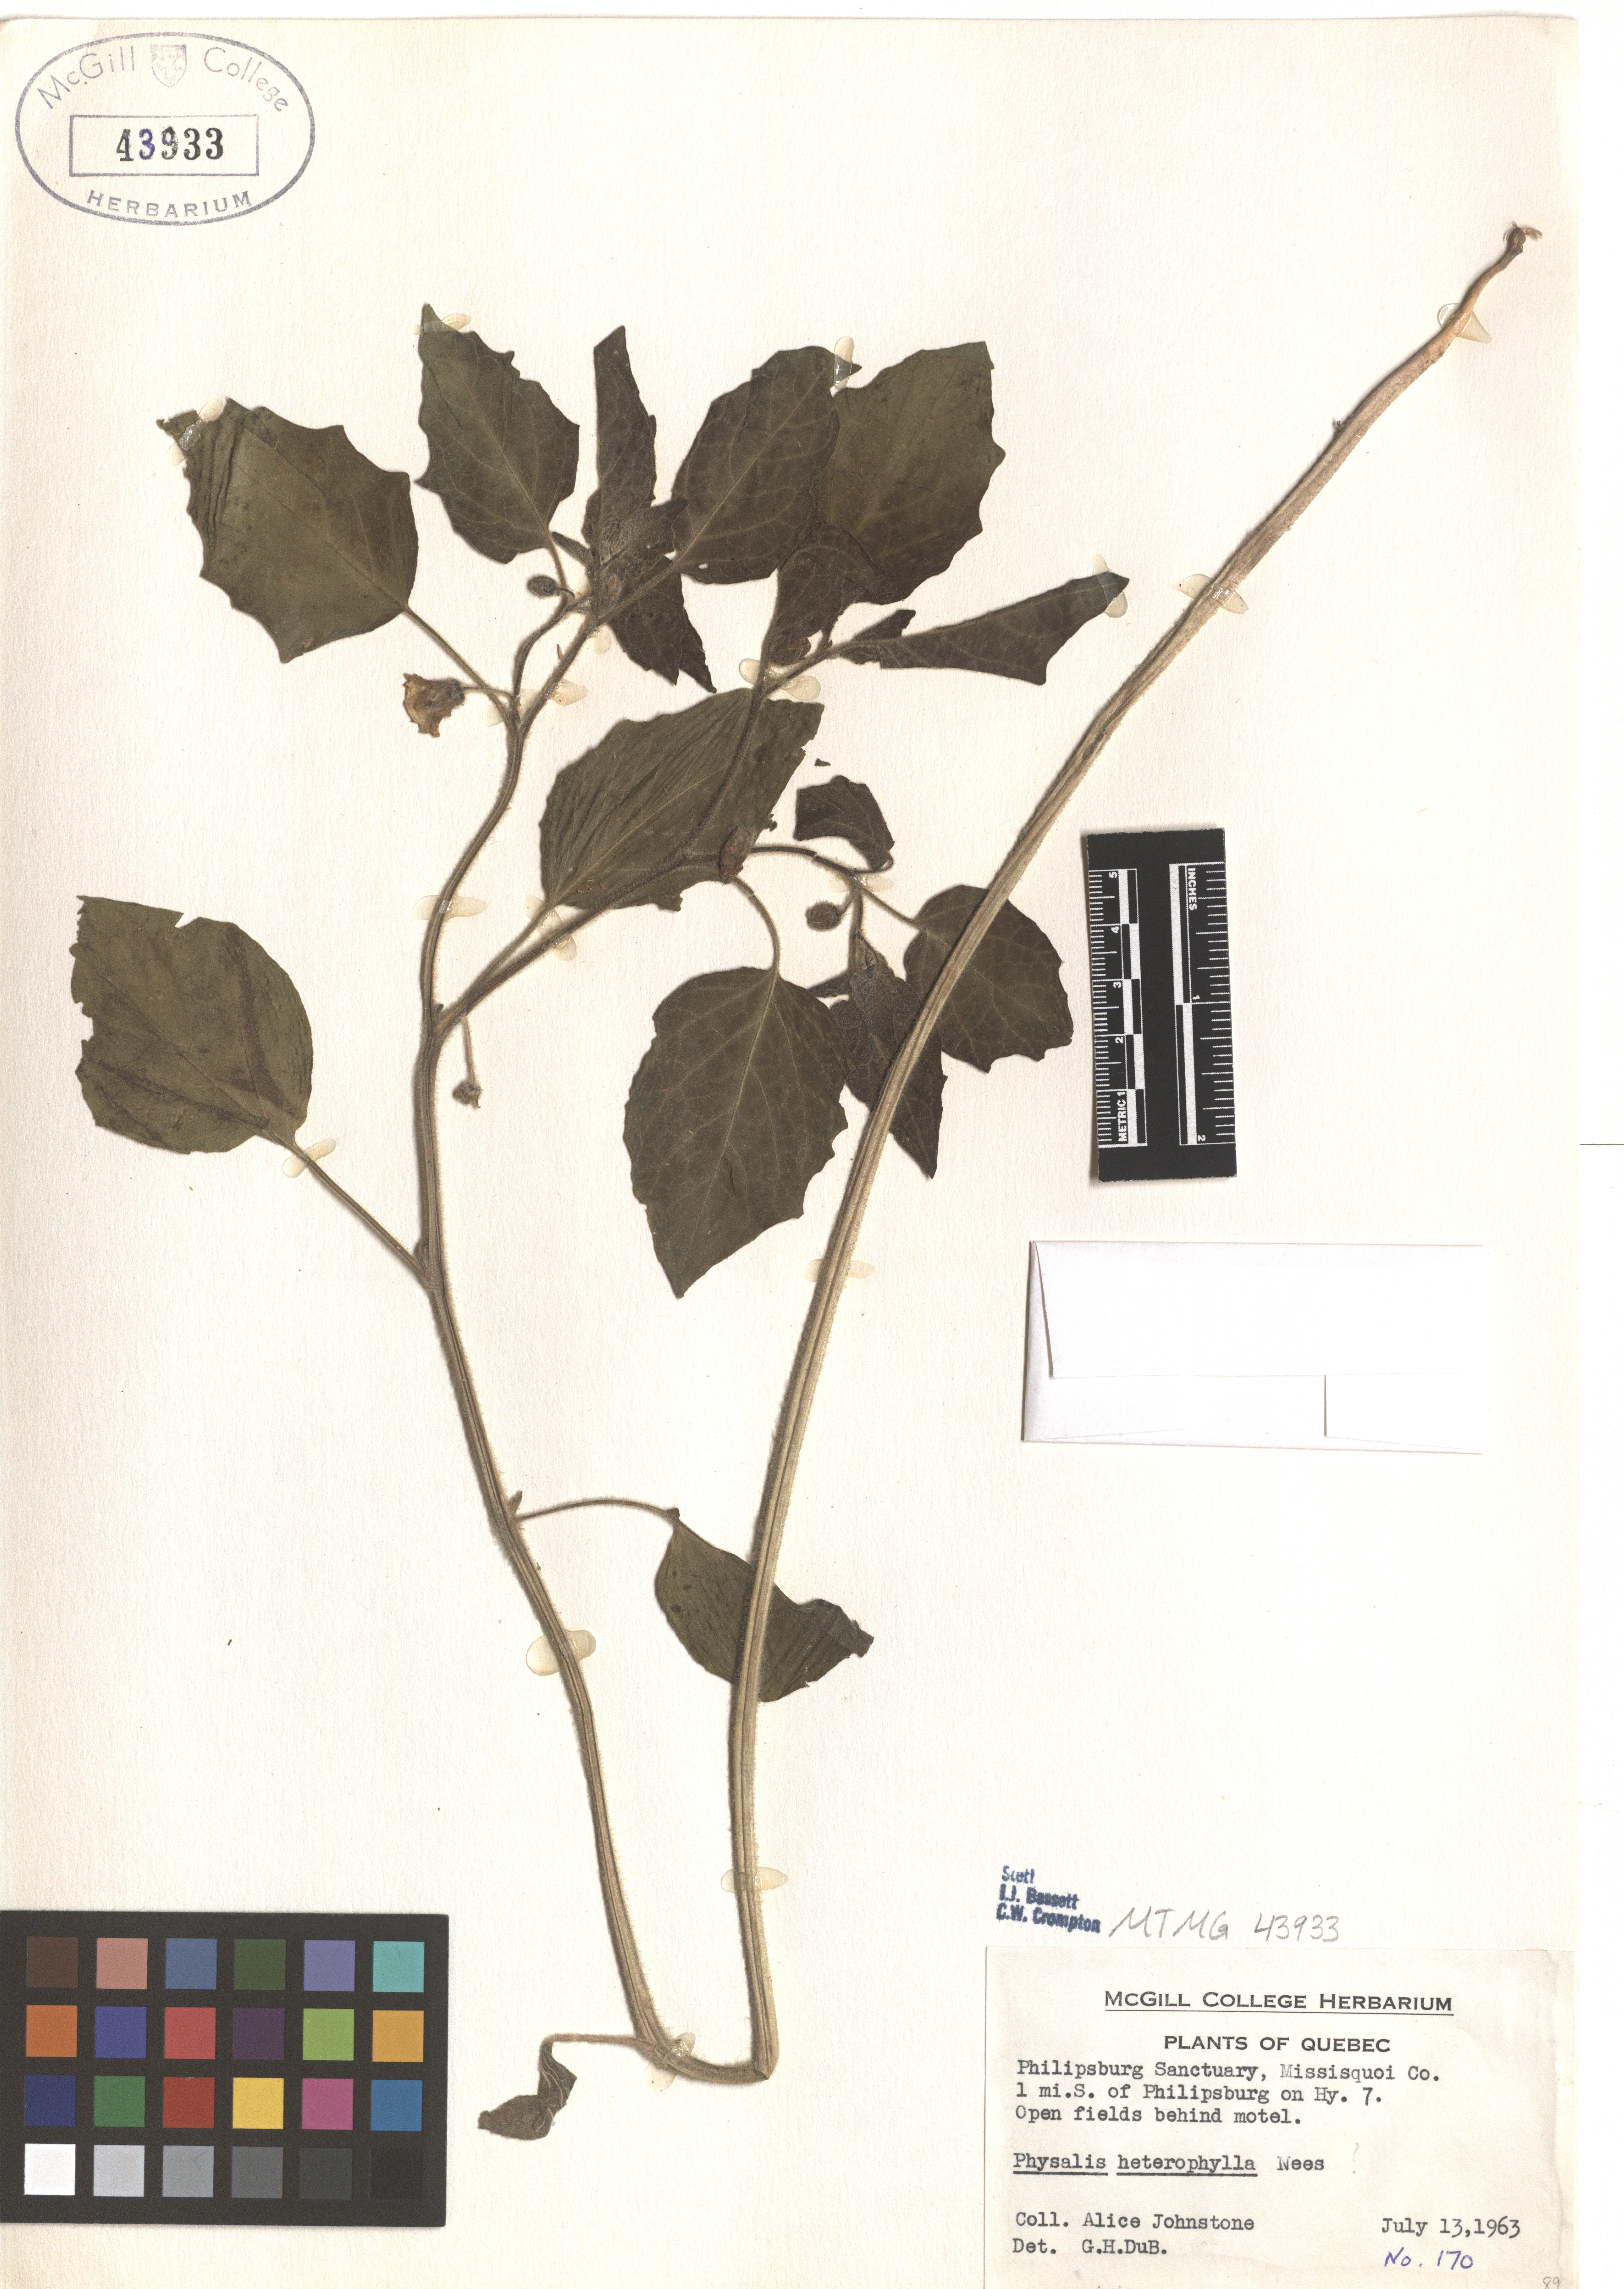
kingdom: Plantae
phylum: Tracheophyta
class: Magnoliopsida
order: Solanales
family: Solanaceae
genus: Physalis
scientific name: Physalis heterophylla
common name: Clammy ground-cherry
